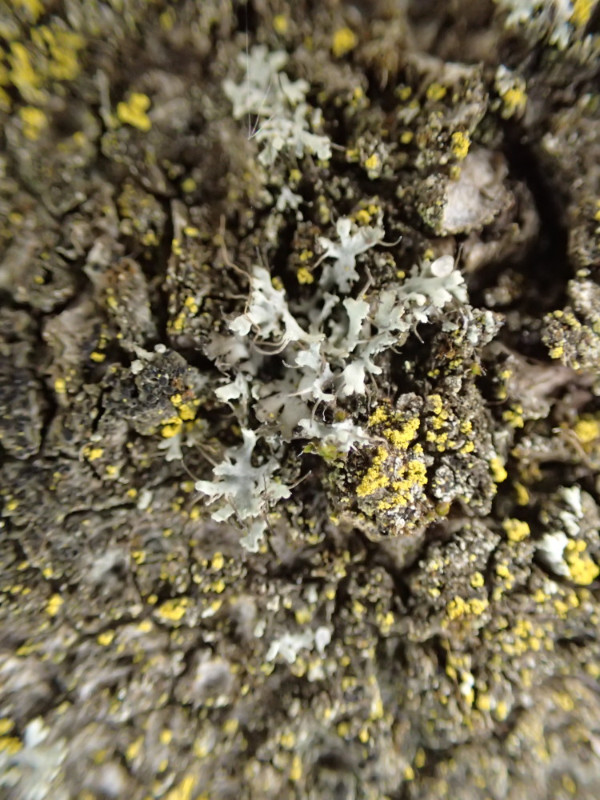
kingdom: Fungi
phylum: Ascomycota
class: Lecanoromycetes
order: Caliciales
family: Physciaceae
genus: Physcia
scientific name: Physcia tenella
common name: spæd rosetlav
